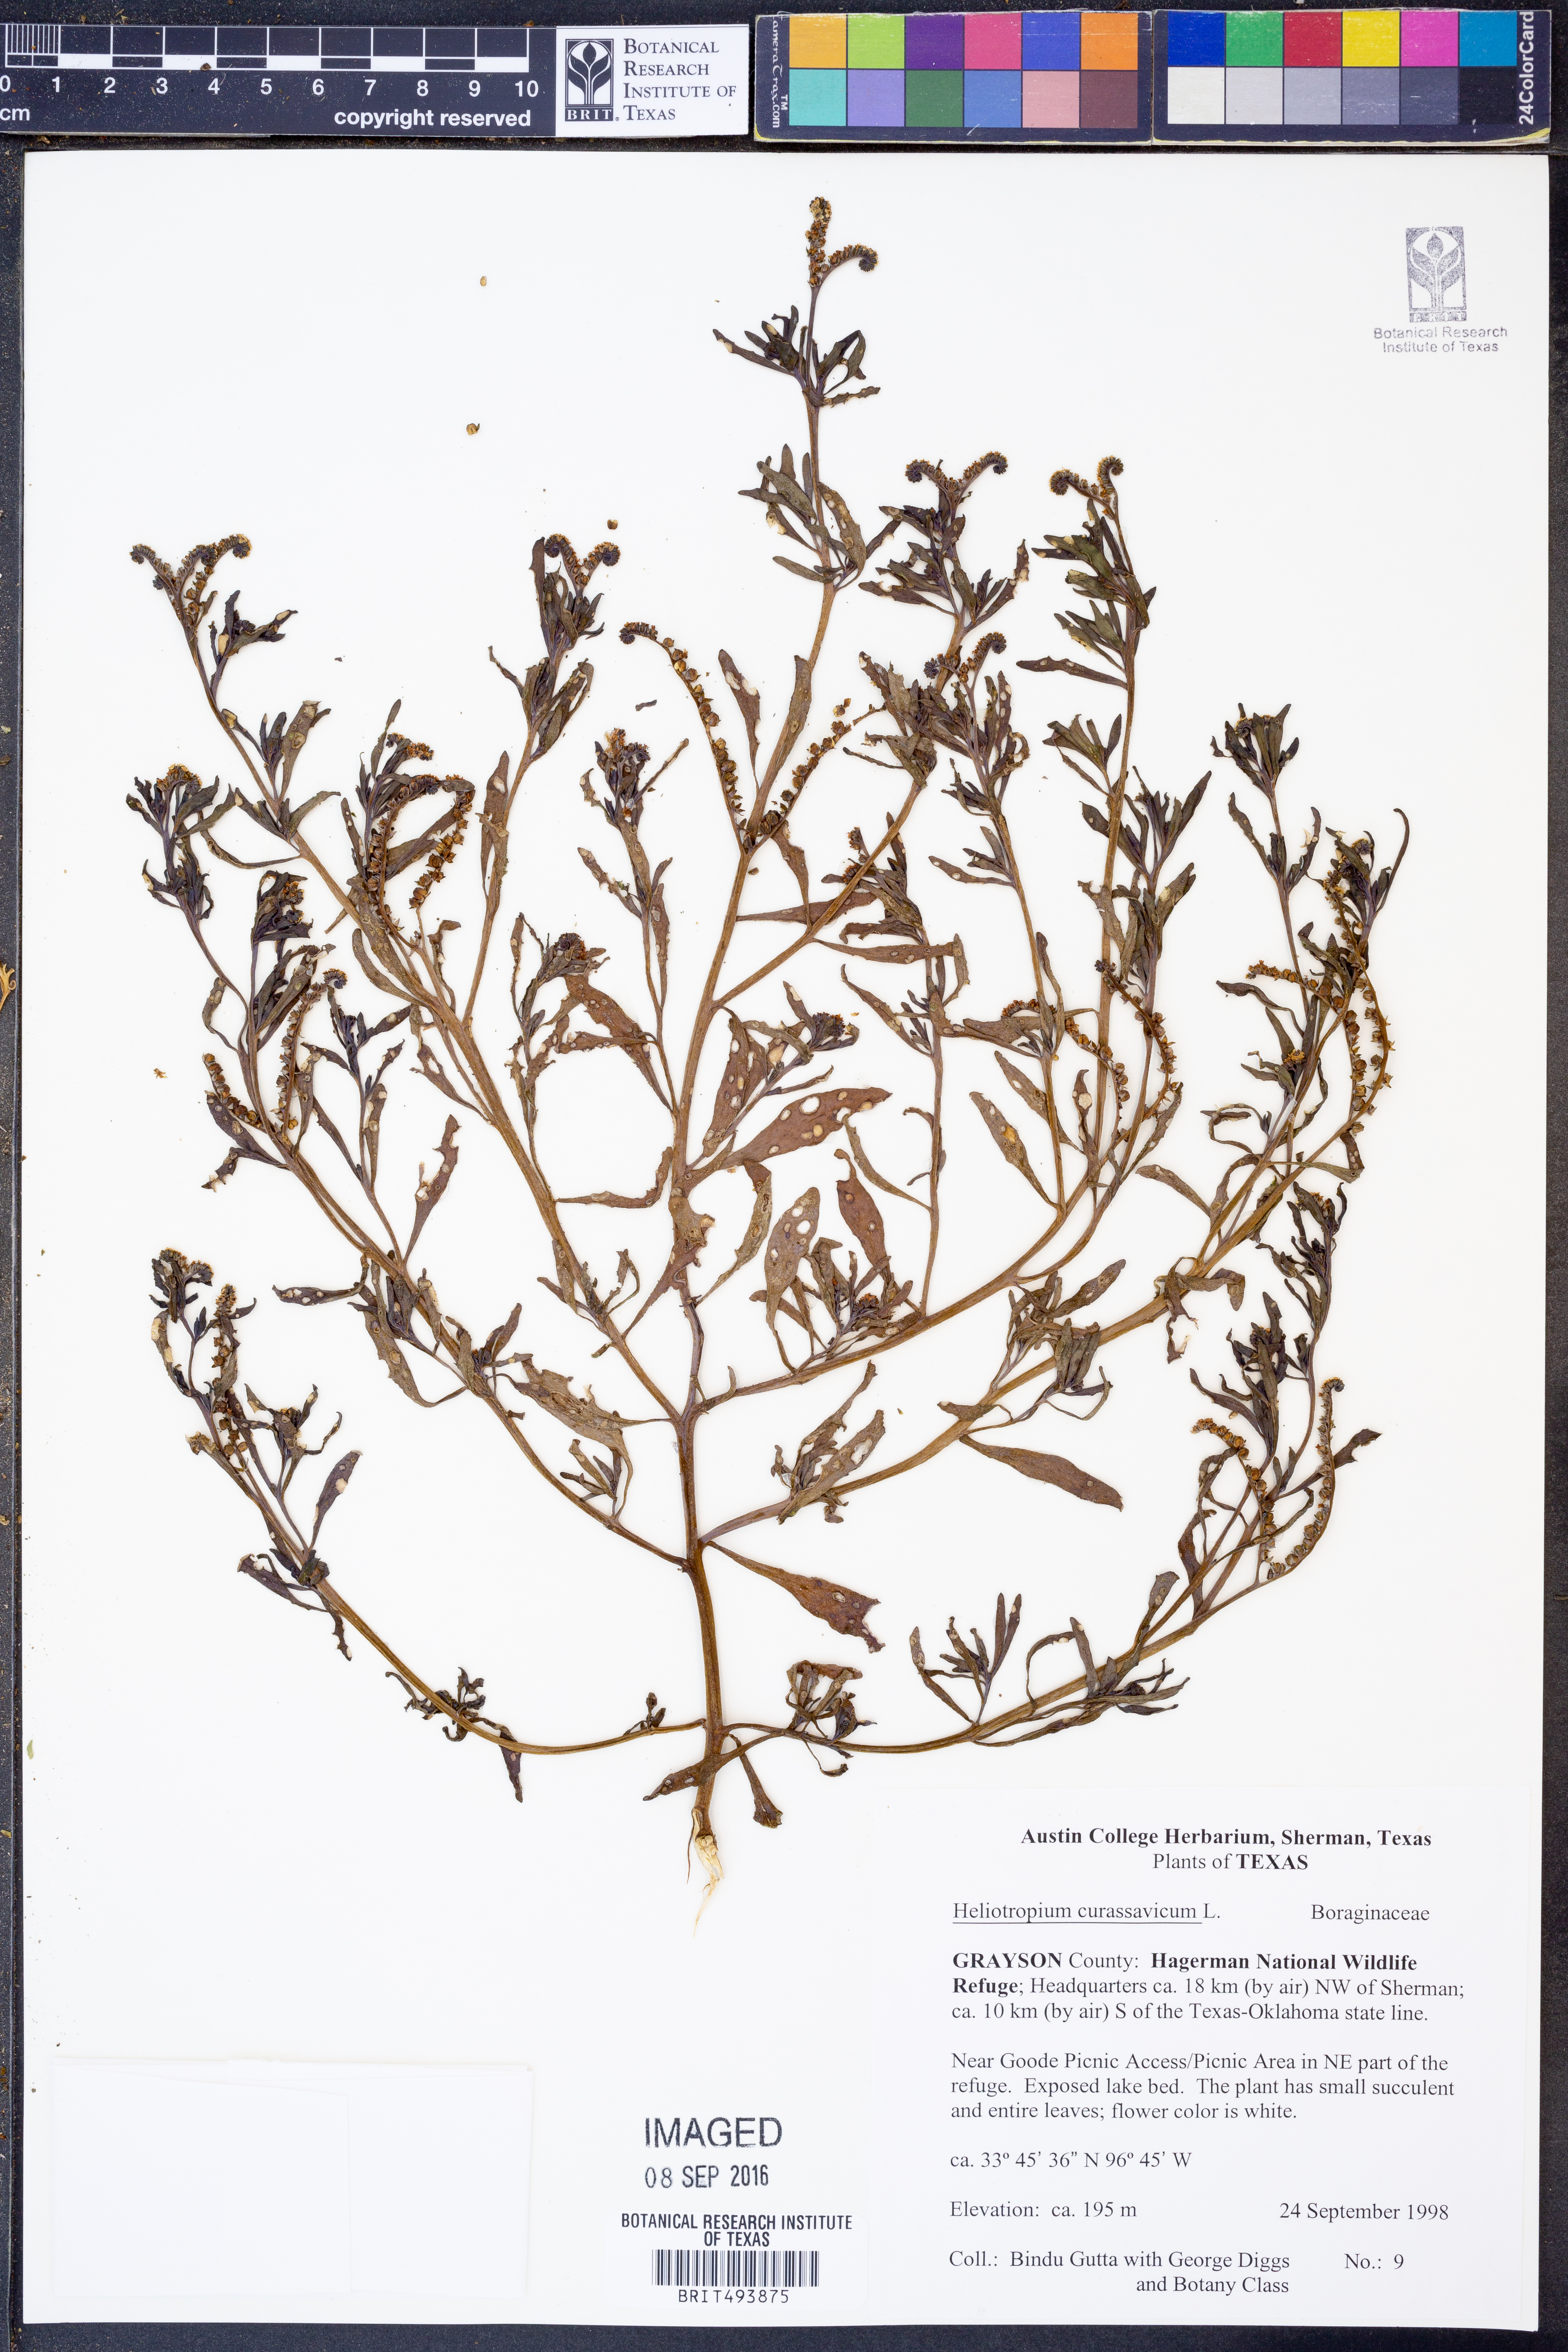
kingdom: Plantae
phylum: Tracheophyta
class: Magnoliopsida
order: Boraginales
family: Heliotropiaceae
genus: Heliotropium
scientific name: Heliotropium curassavicum
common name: Seaside heliotrope
